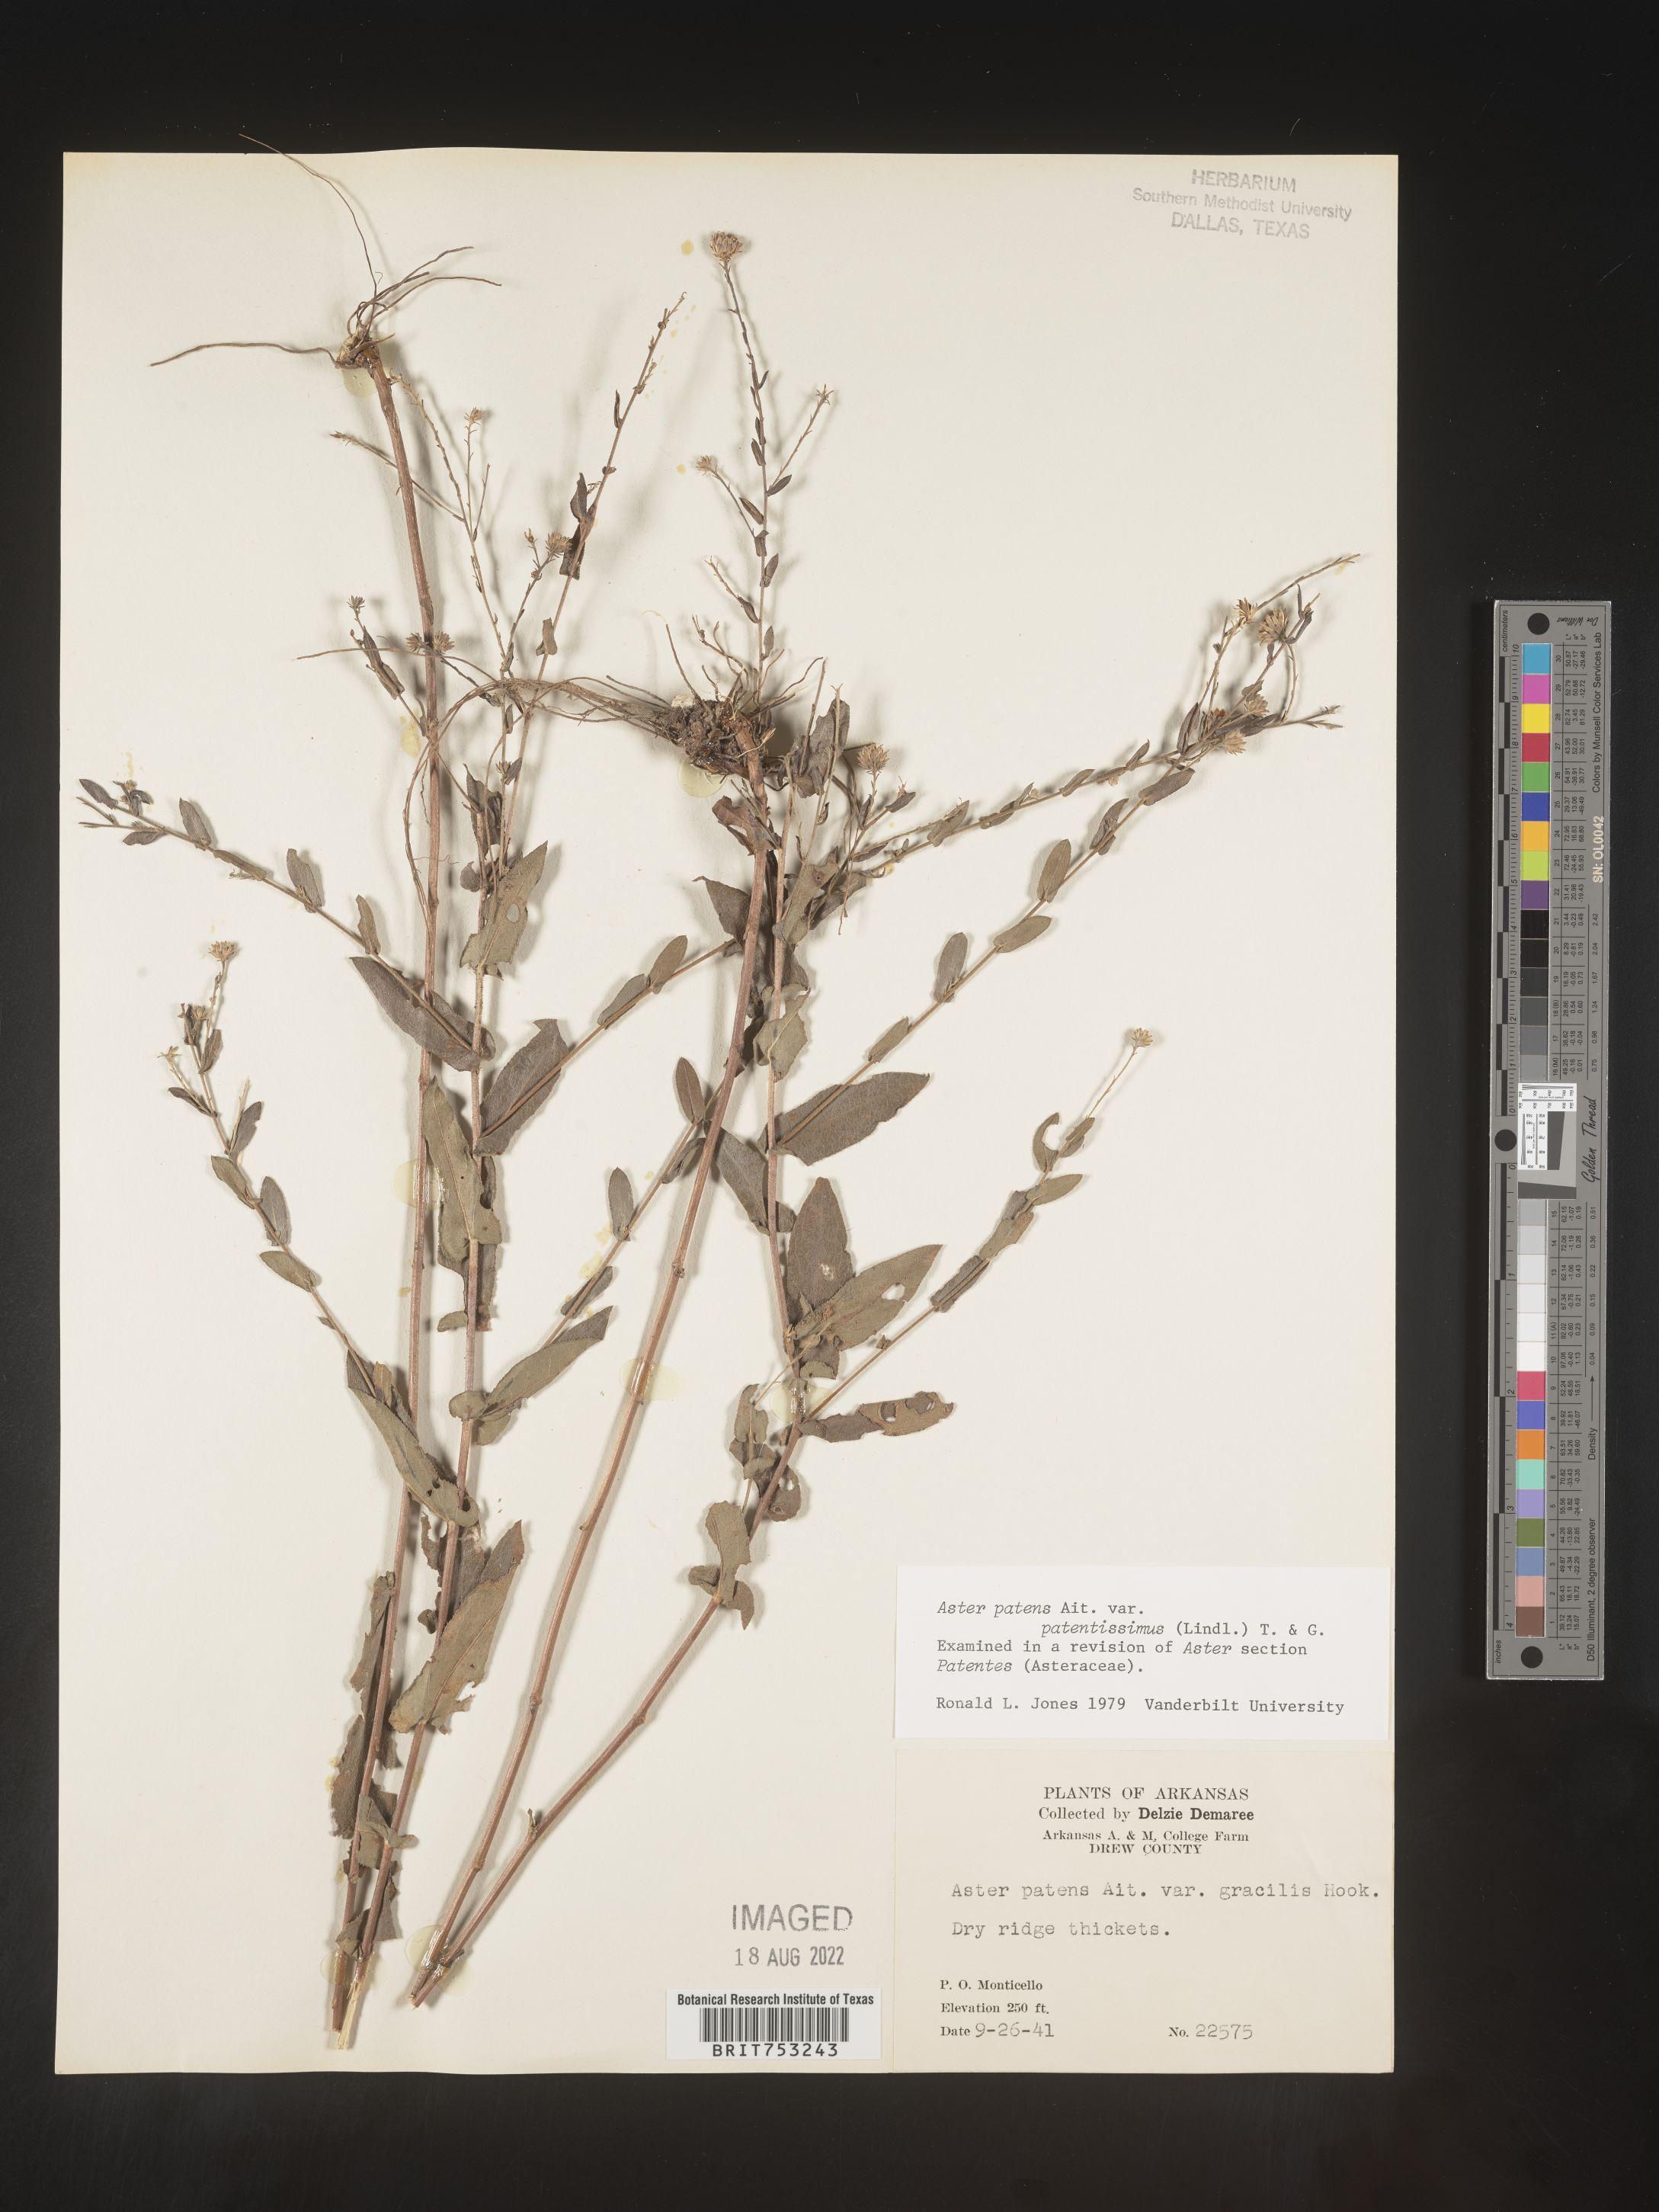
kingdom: Plantae
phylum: Tracheophyta
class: Magnoliopsida
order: Asterales
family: Asteraceae
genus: Symphyotrichum
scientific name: Symphyotrichum patens
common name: Late purple aster
